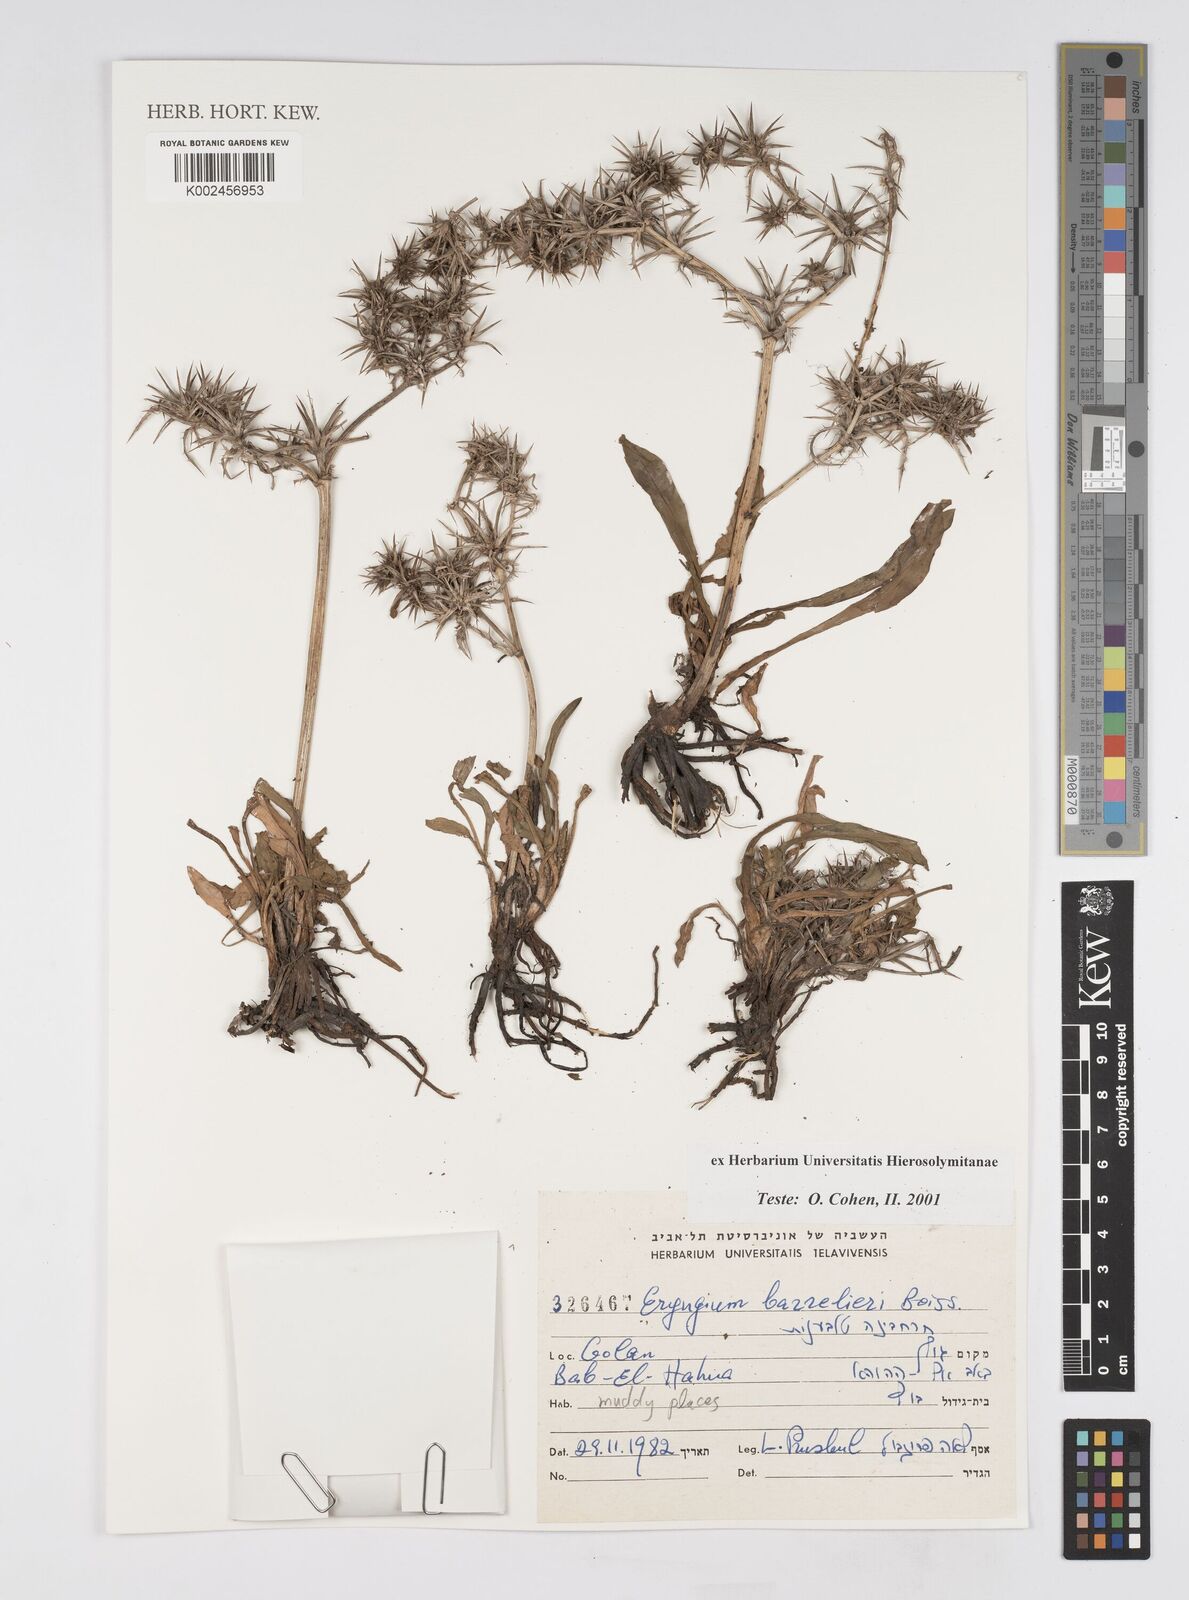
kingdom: Plantae
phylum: Tracheophyta
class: Magnoliopsida
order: Apiales
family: Apiaceae
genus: Eryngium
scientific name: Eryngium pusillum
